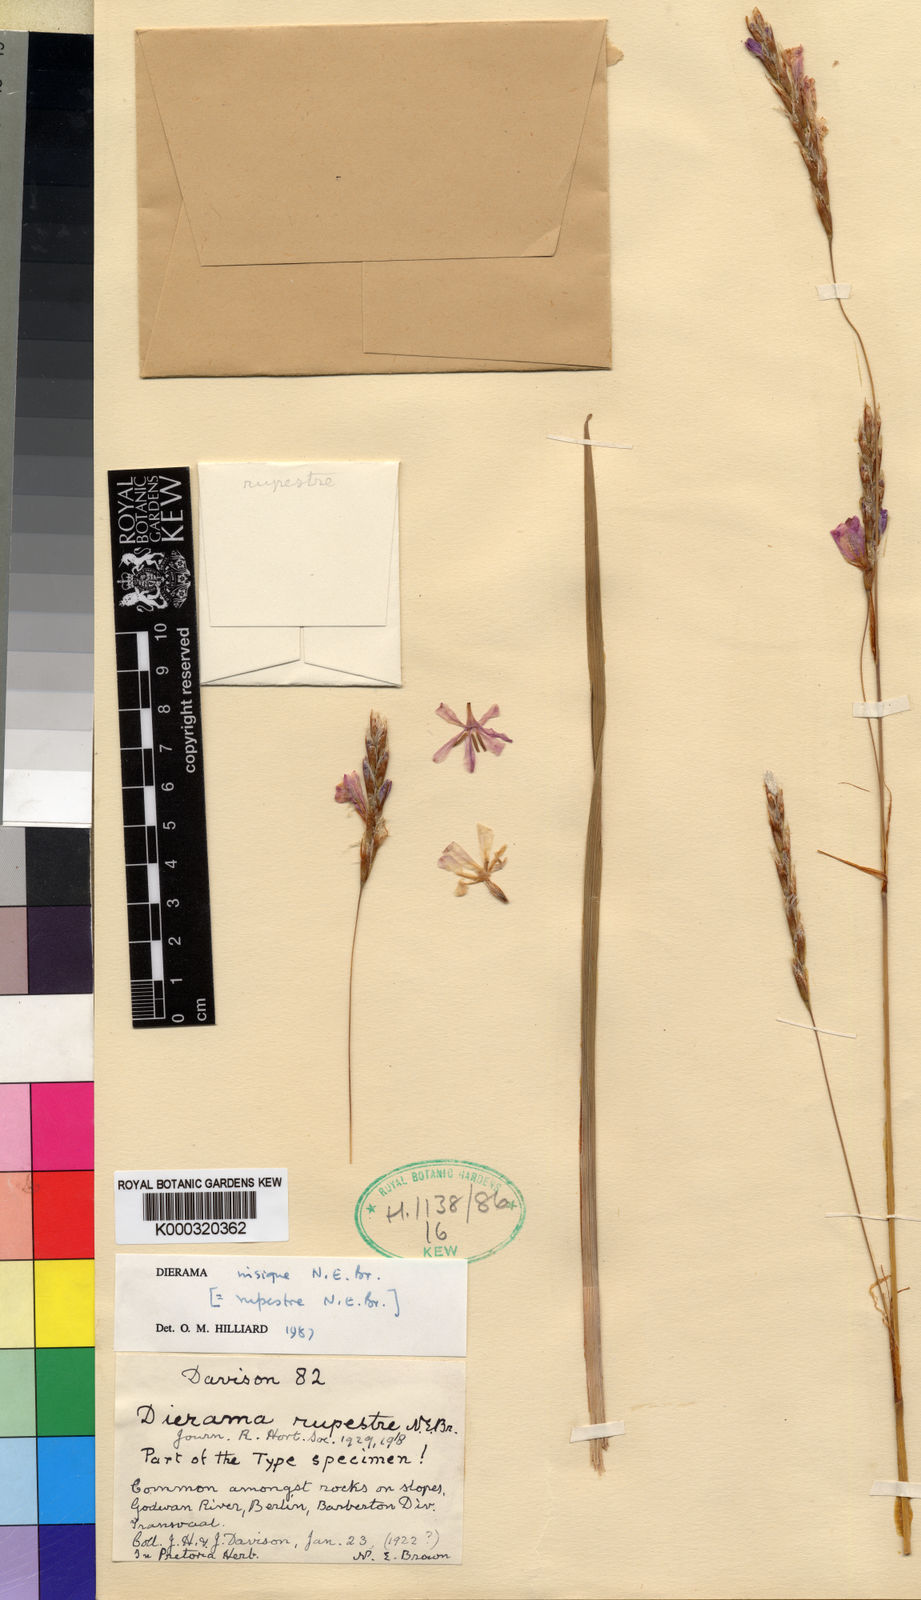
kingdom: Plantae
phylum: Tracheophyta
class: Liliopsida
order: Asparagales
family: Iridaceae
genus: Dierama
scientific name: Dierama insigne
